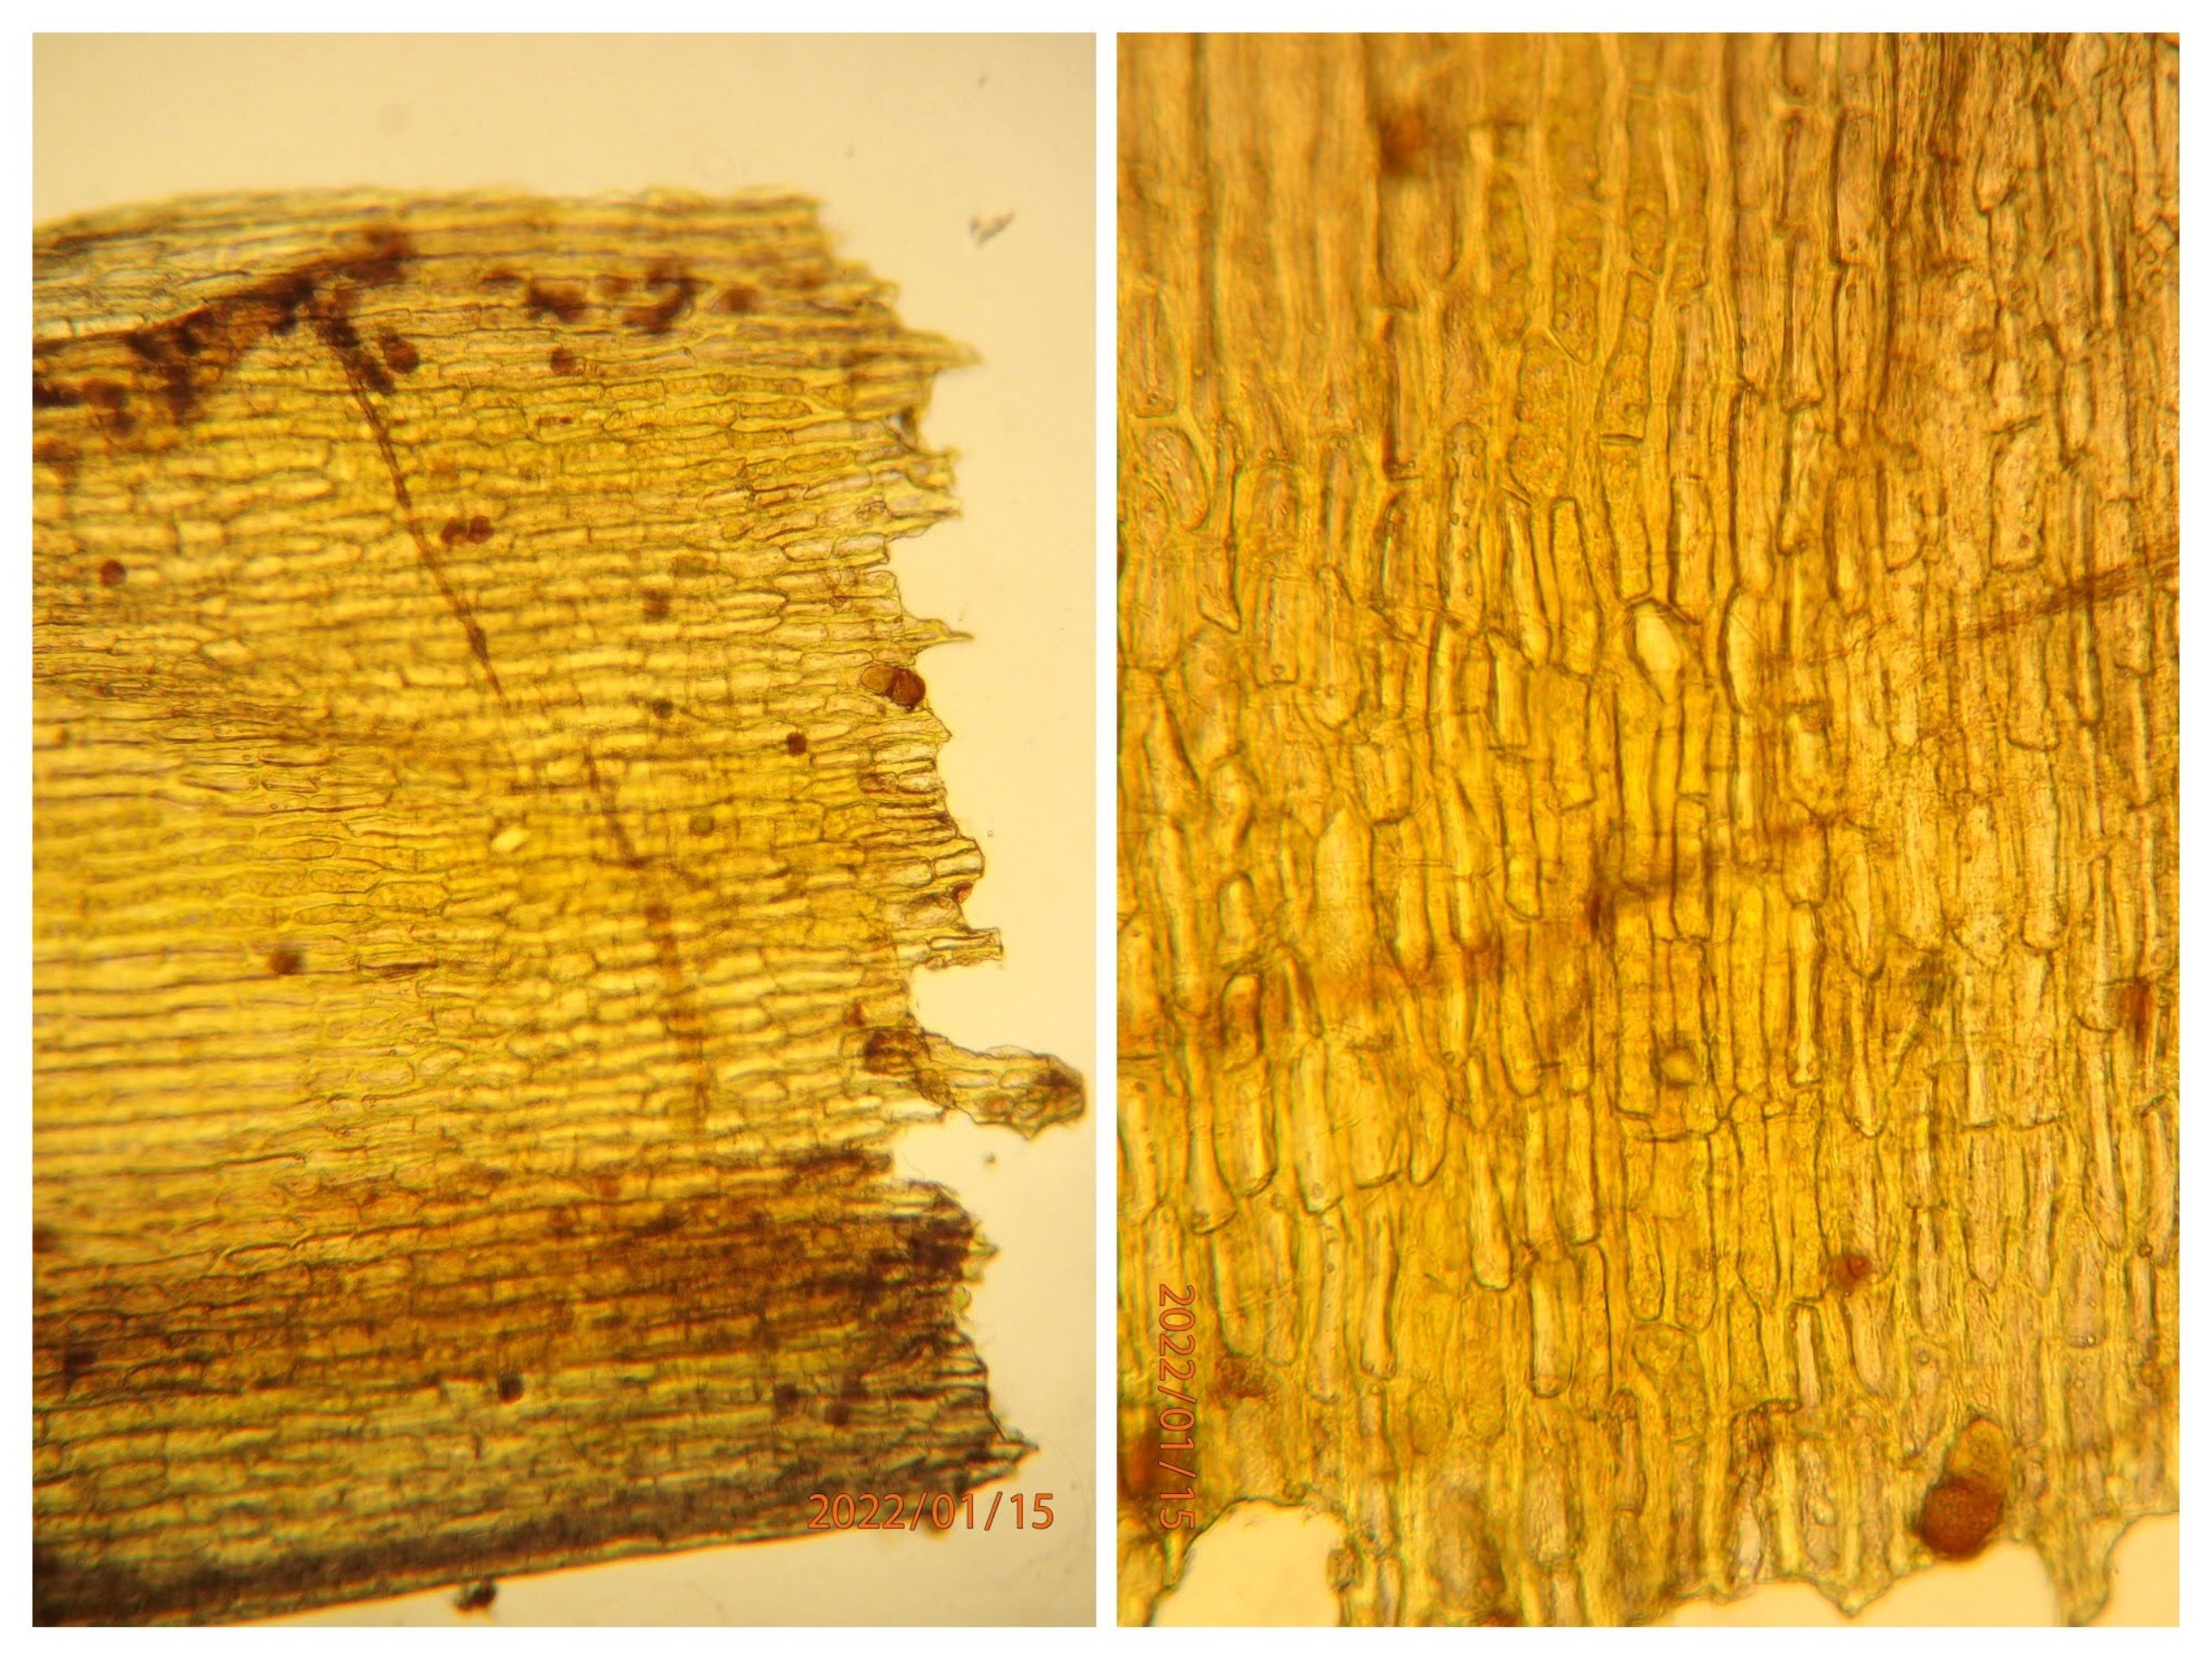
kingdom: Plantae
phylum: Bryophyta
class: Bryopsida
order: Orthotrichales
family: Orthotrichaceae
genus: Ulota
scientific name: Ulota
